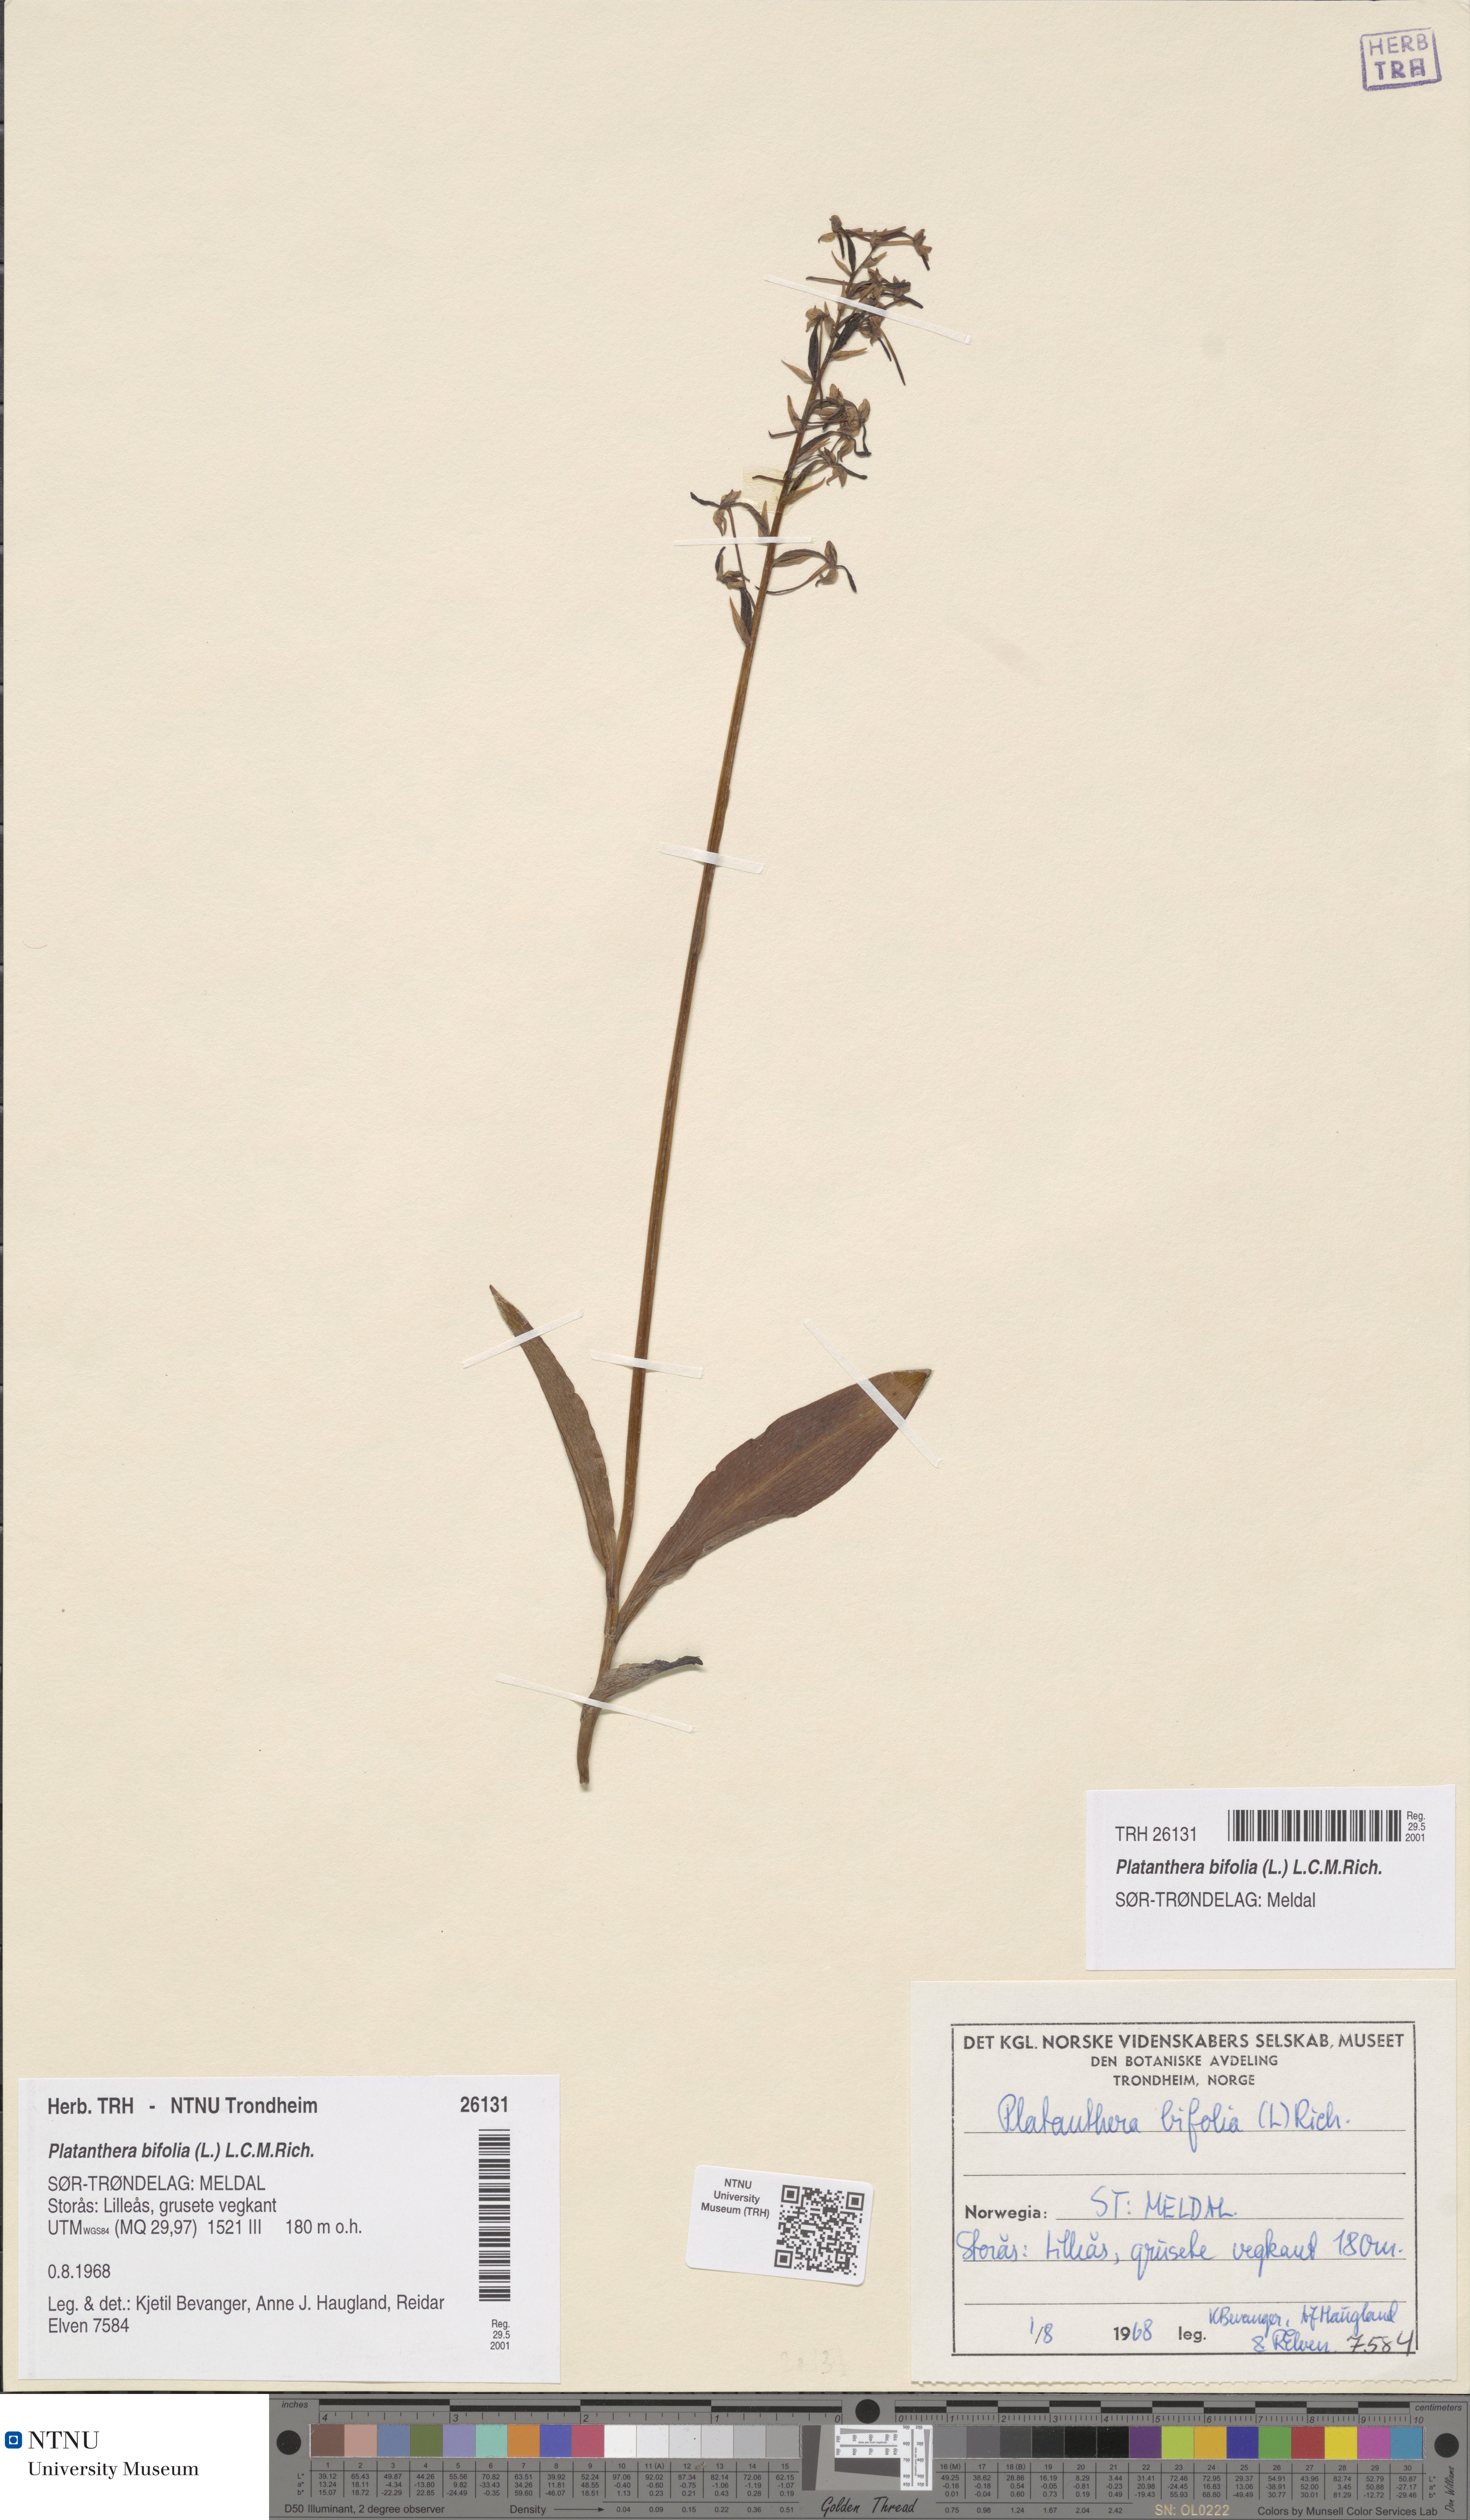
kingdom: Plantae
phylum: Tracheophyta
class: Liliopsida
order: Asparagales
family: Orchidaceae
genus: Platanthera
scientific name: Platanthera bifolia
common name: Lesser butterfly-orchid
